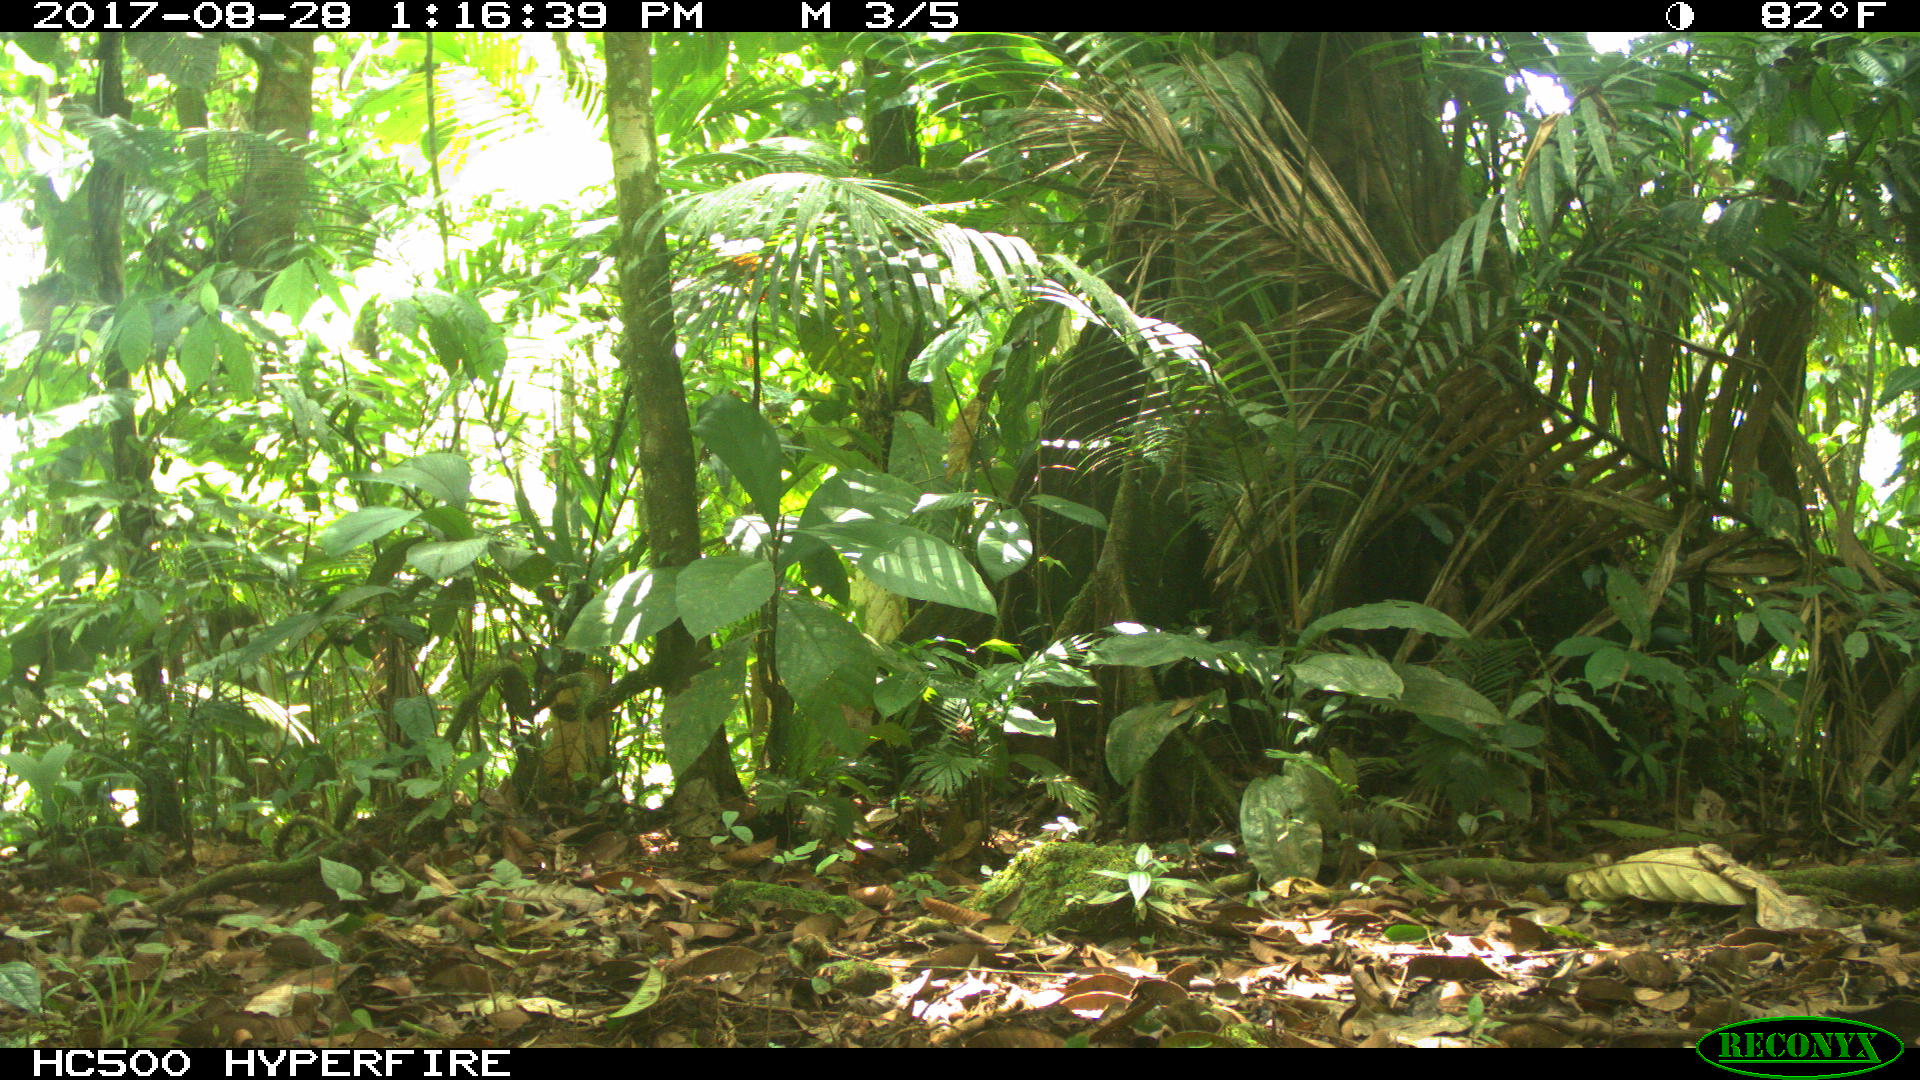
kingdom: Animalia
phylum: Chordata
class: Mammalia
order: Artiodactyla
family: Tayassuidae
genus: Tayassu
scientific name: Tayassu pecari
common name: White-lipped peccary
